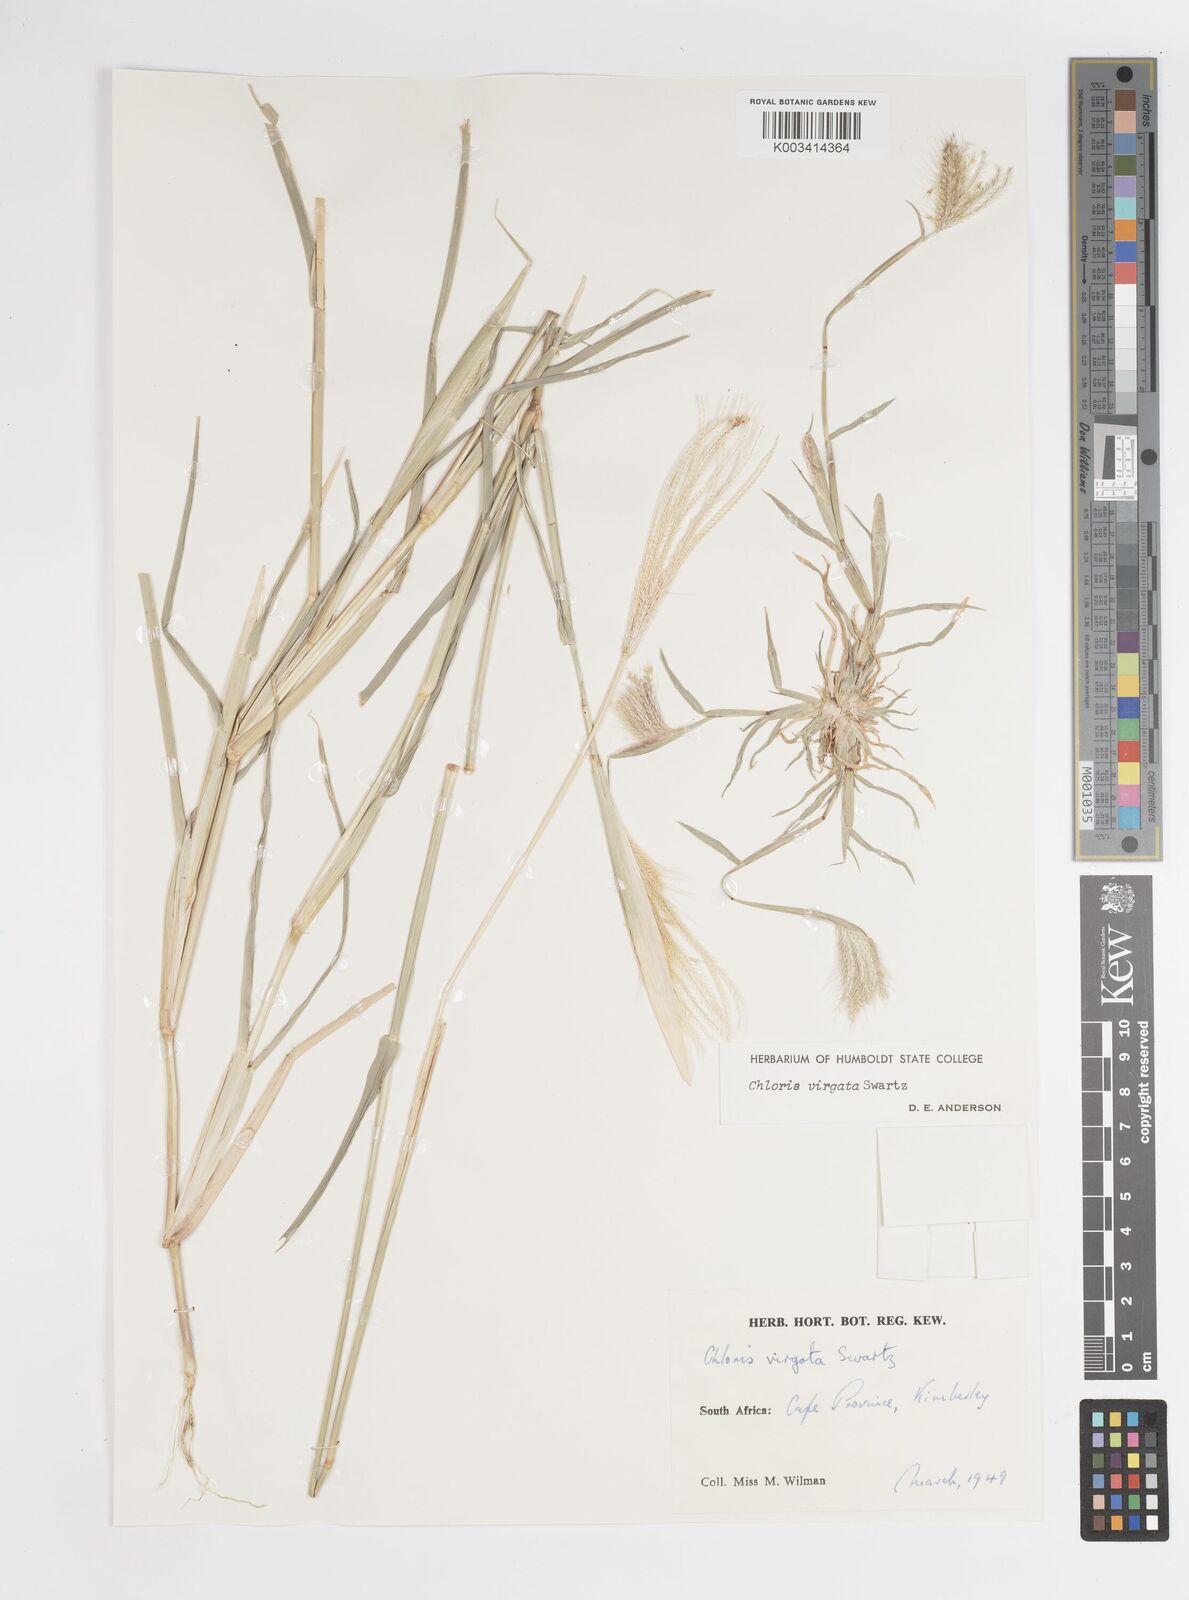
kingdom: Plantae
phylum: Tracheophyta
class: Liliopsida
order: Poales
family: Poaceae
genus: Chloris
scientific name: Chloris virgata
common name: Feathery rhodes-grass
